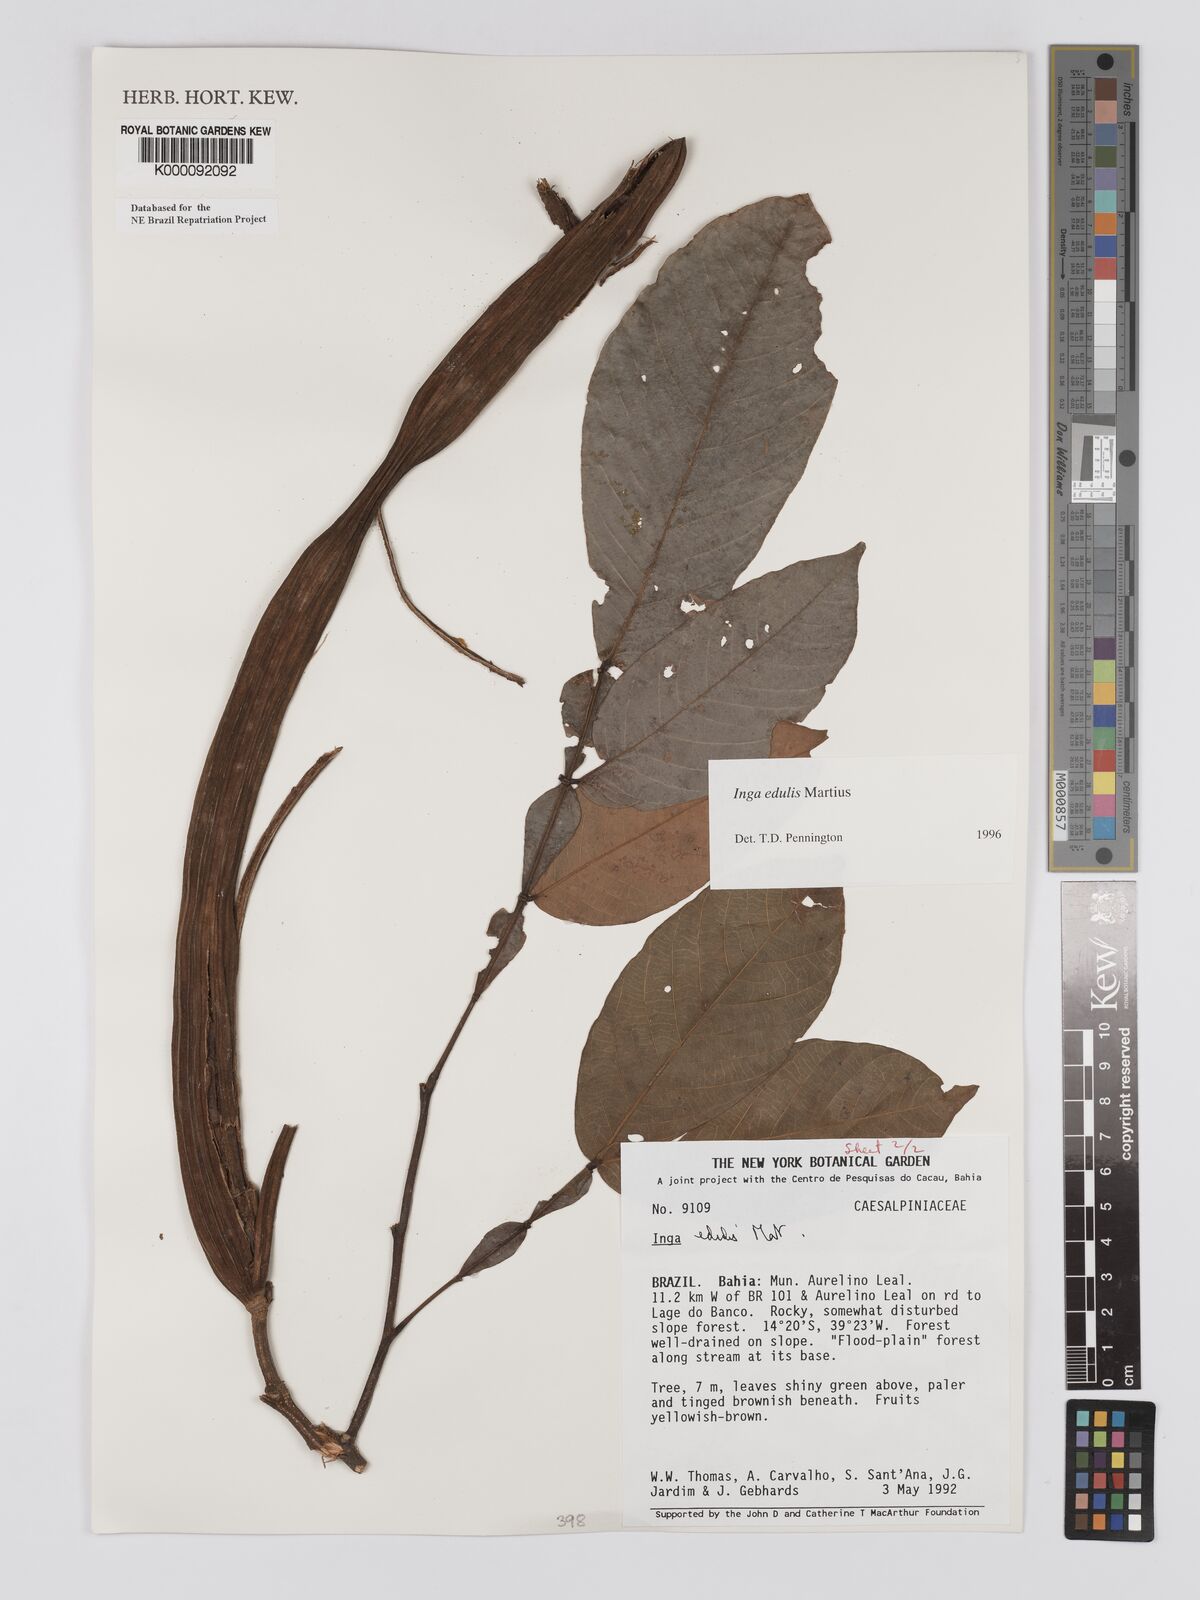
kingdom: Plantae
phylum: Tracheophyta
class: Magnoliopsida
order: Fabales
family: Fabaceae
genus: Inga
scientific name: Inga edulis
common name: Ice cream bean
